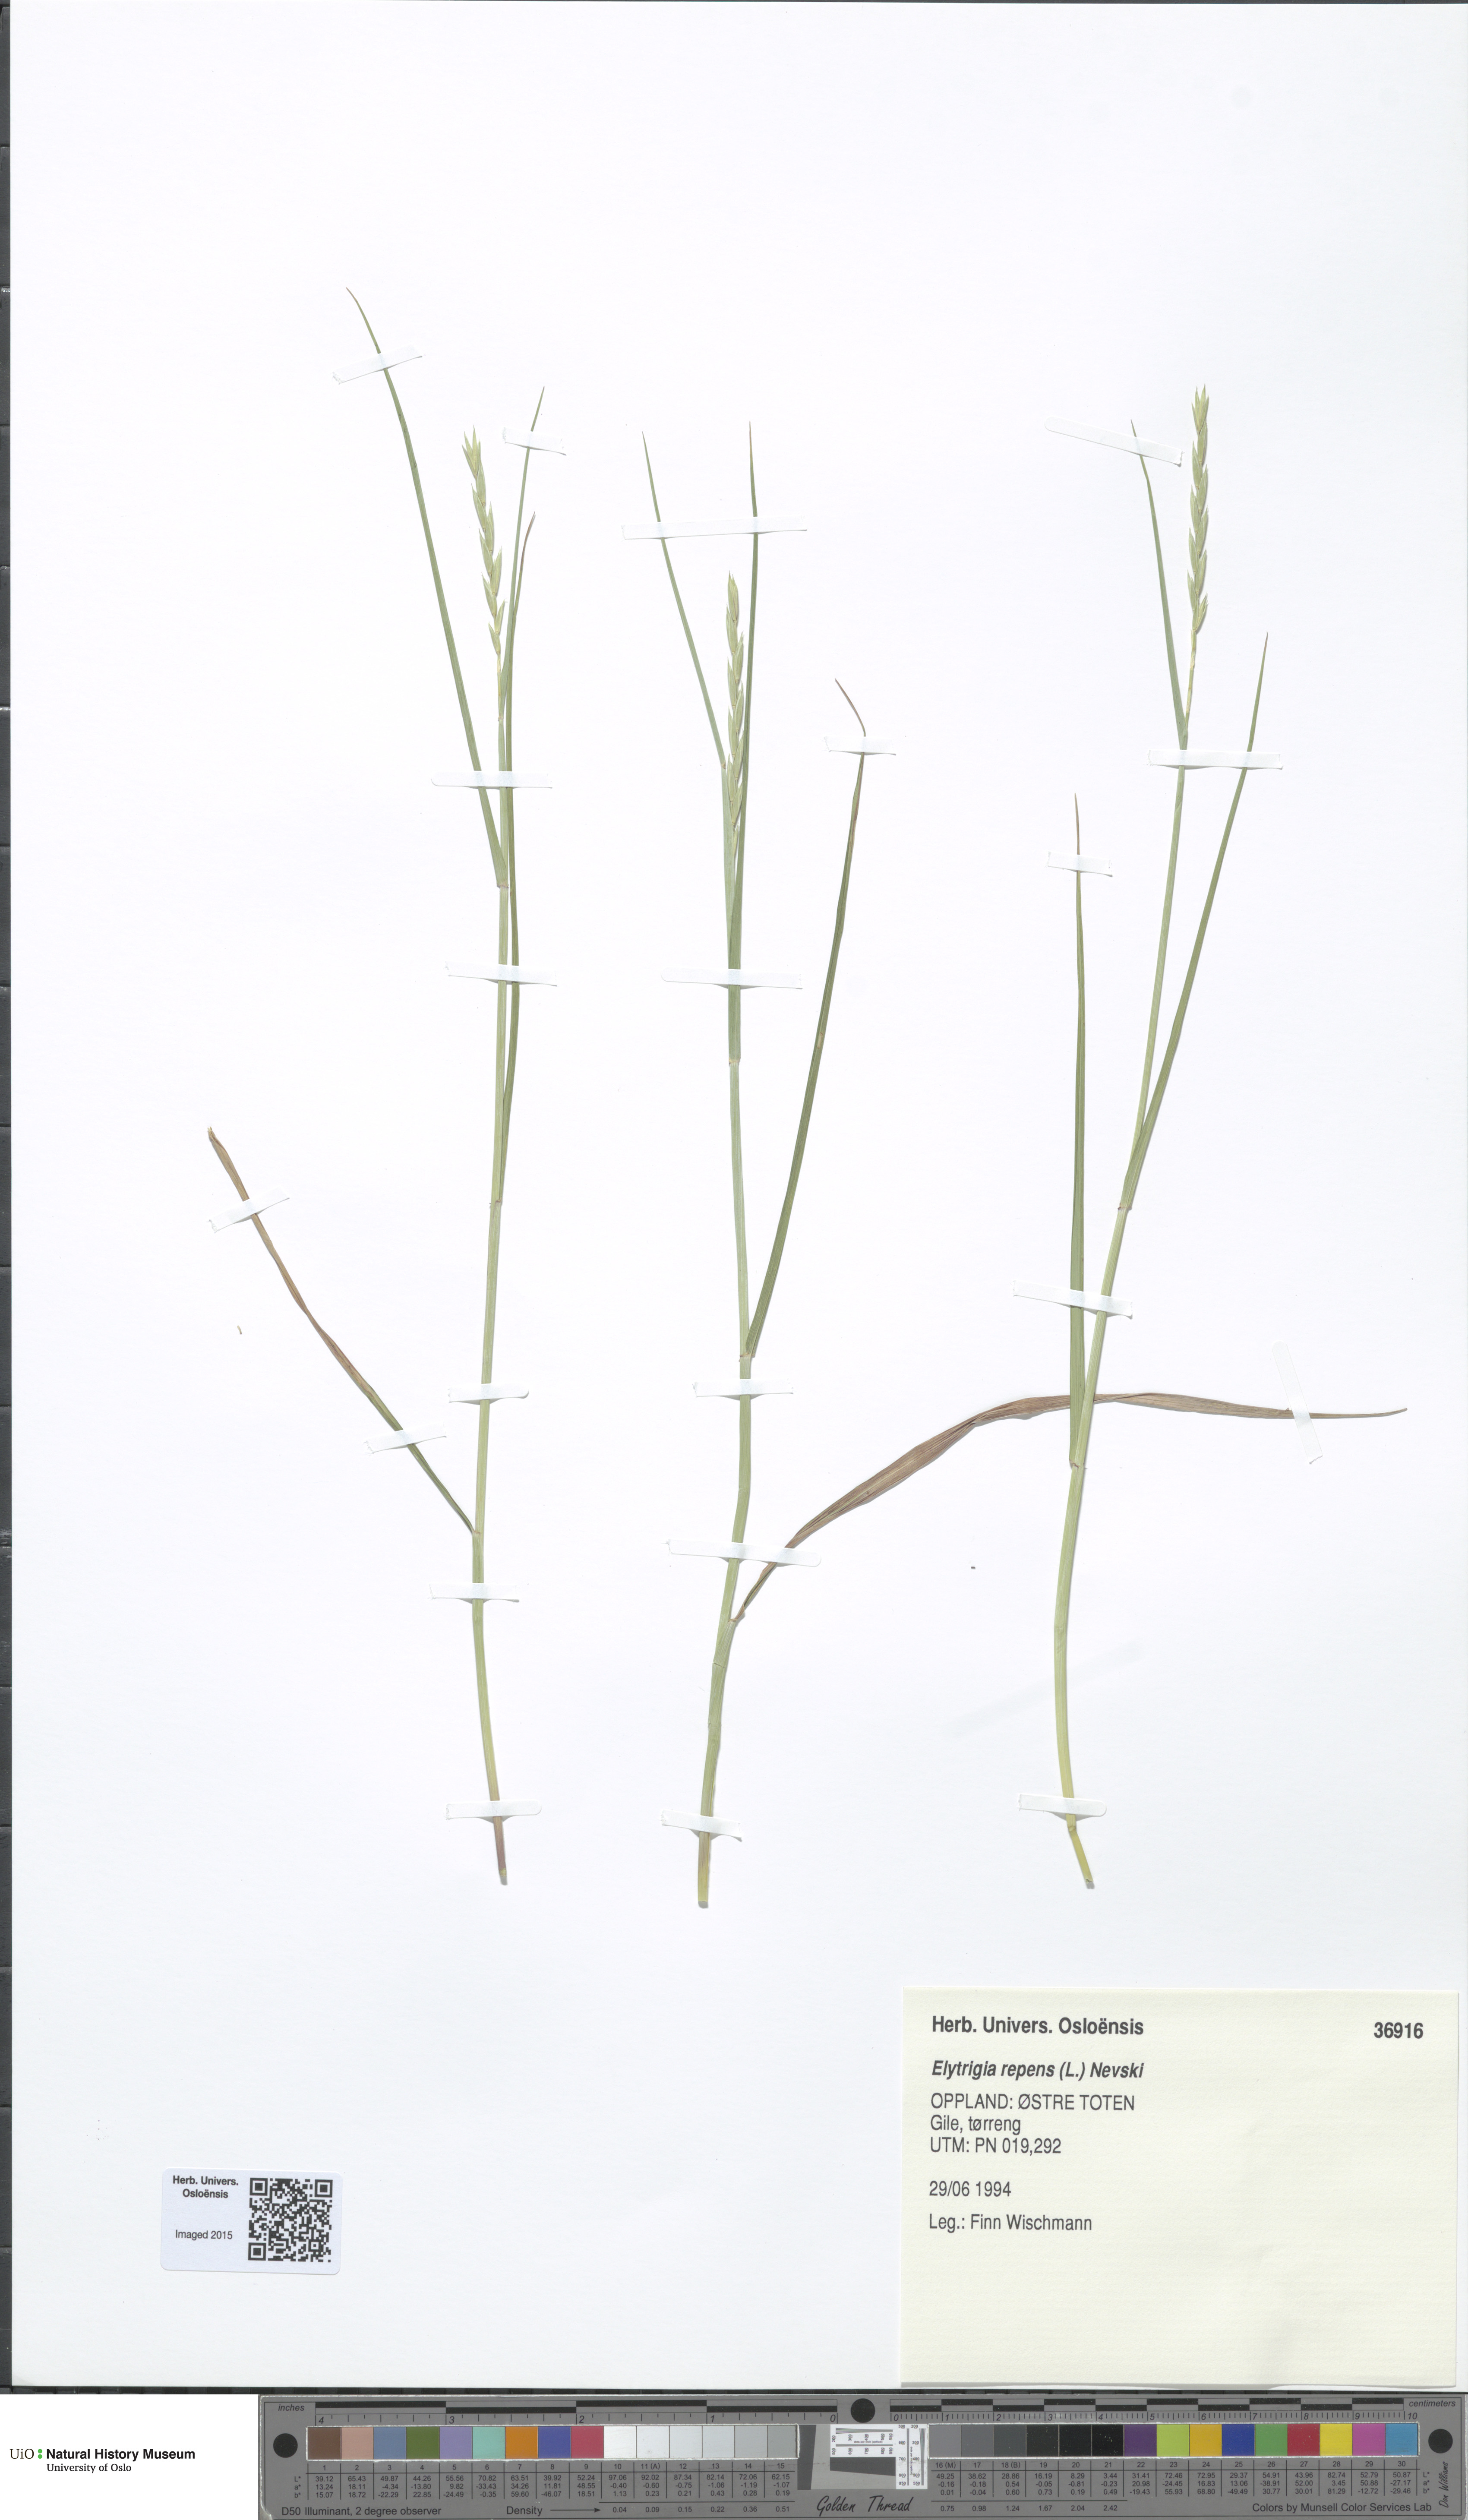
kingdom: Plantae
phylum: Tracheophyta
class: Liliopsida
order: Poales
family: Poaceae
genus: Elymus
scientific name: Elymus repens
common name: Quackgrass
